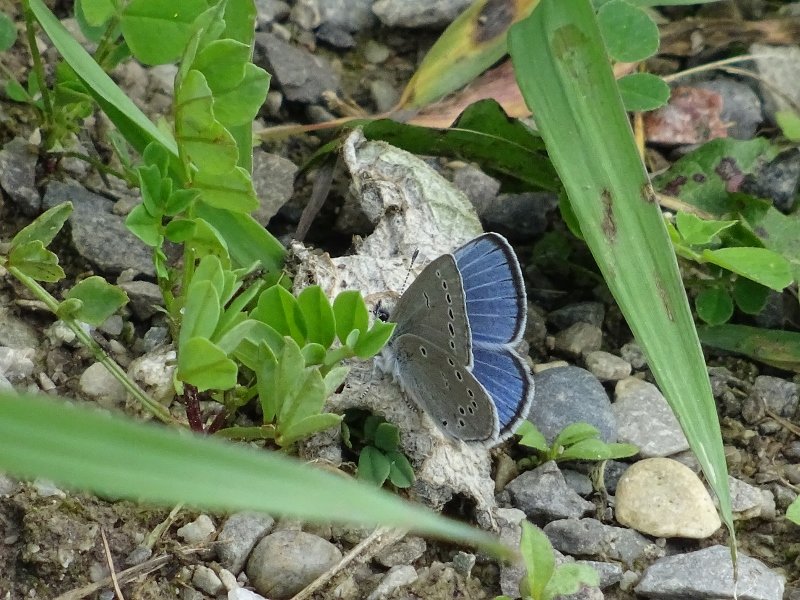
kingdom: Animalia
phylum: Arthropoda
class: Insecta
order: Lepidoptera
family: Lycaenidae
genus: Glaucopsyche
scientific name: Glaucopsyche lygdamus
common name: Silvery Blue
